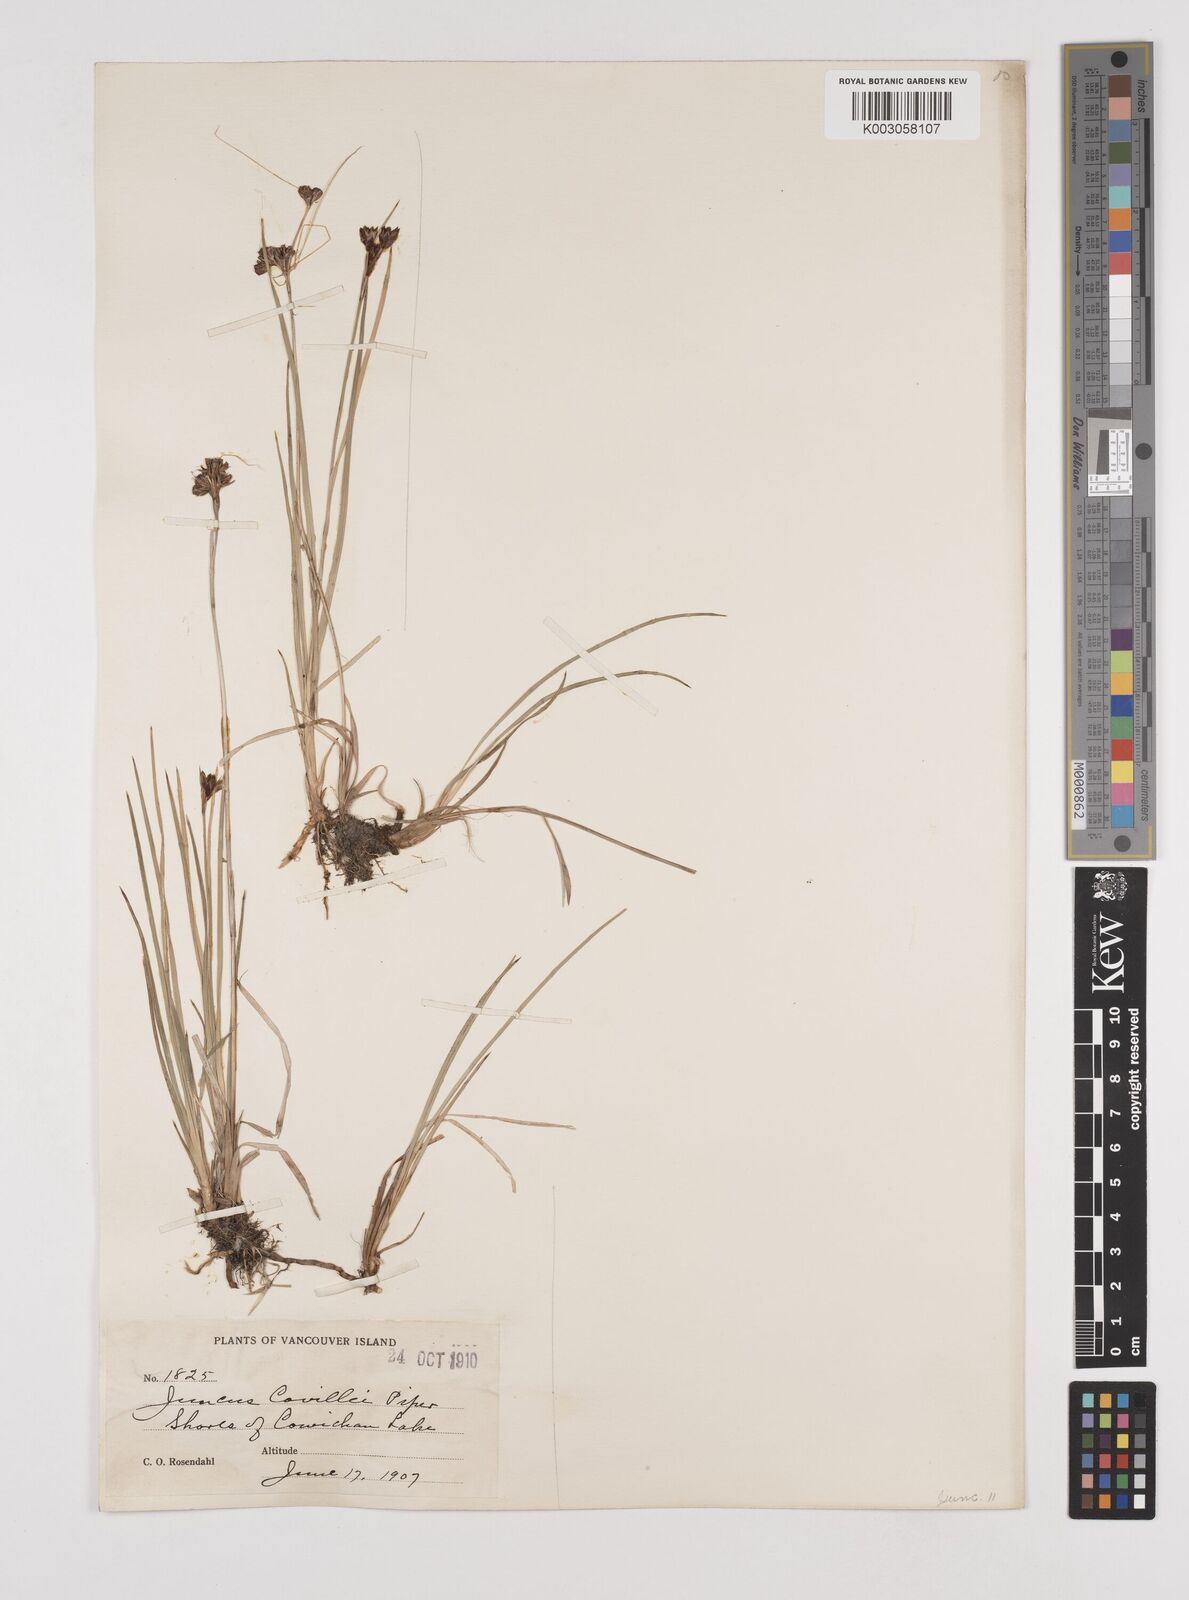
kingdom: Plantae
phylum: Tracheophyta
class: Liliopsida
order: Poales
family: Juncaceae
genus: Juncus
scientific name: Juncus covillei
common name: Coville's rush
